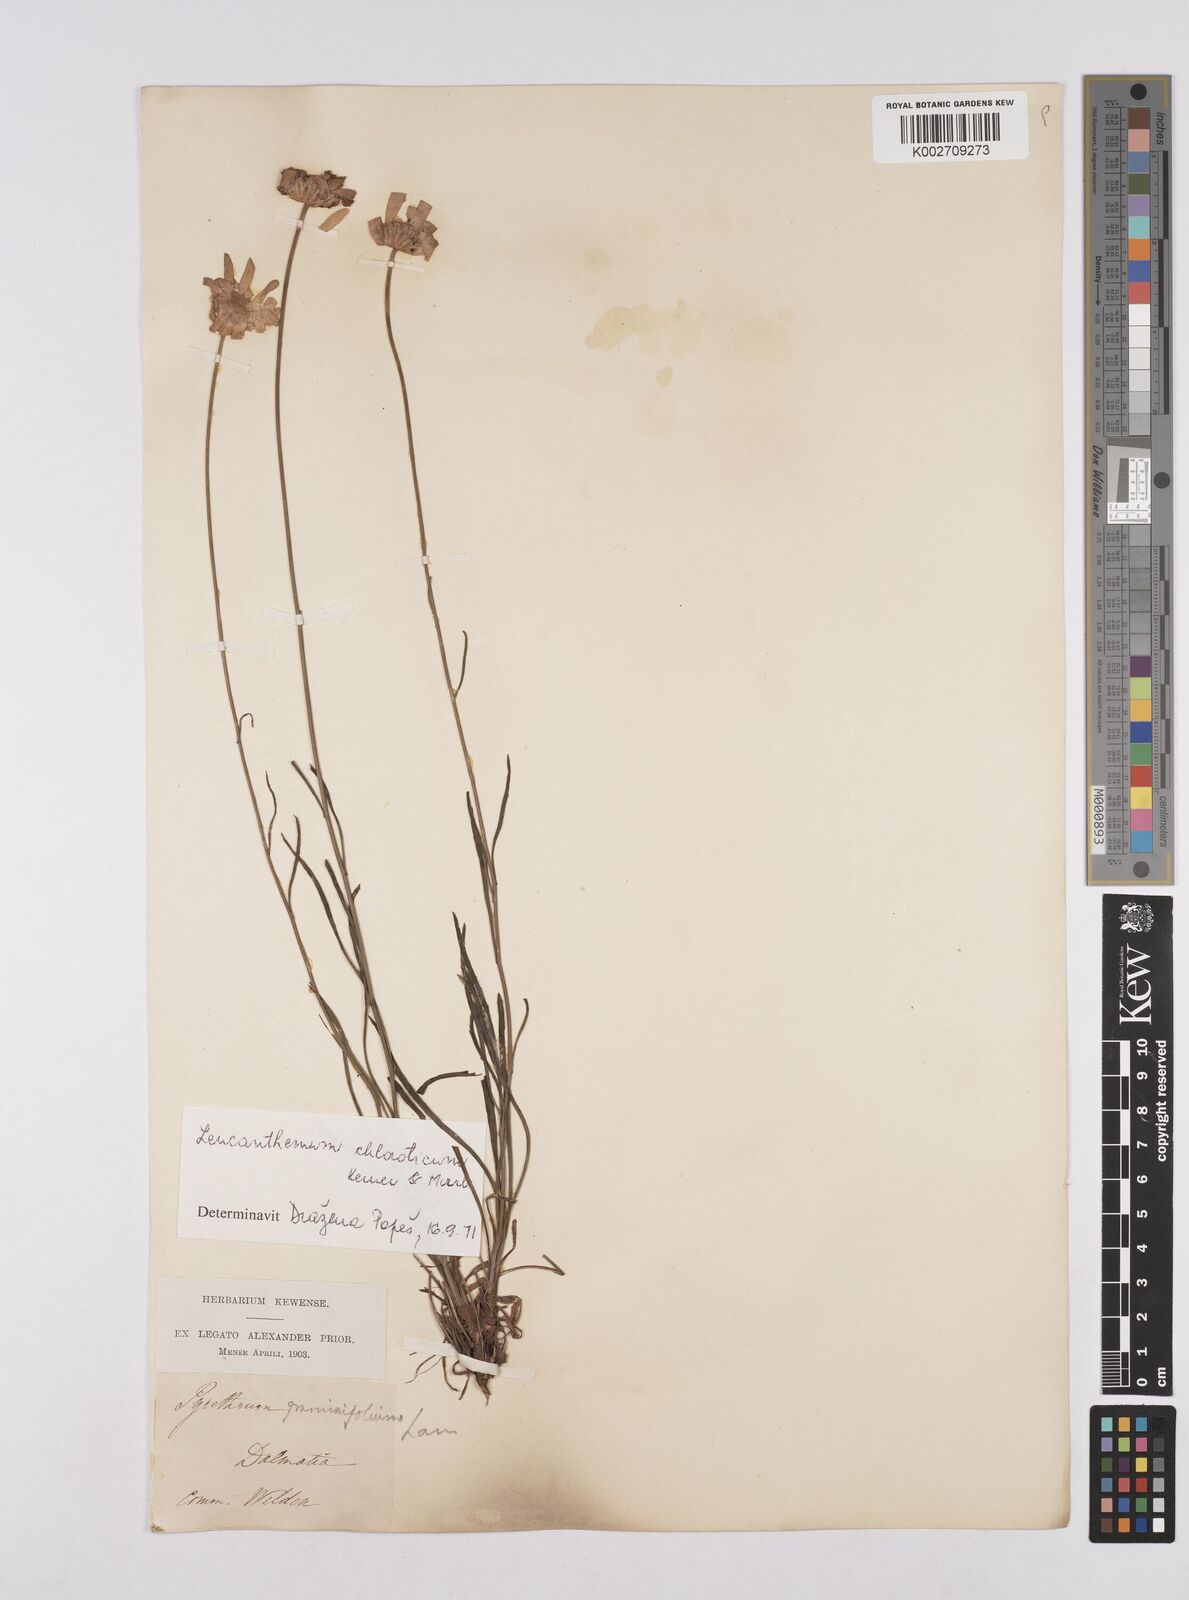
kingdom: Plantae
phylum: Tracheophyta
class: Magnoliopsida
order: Asterales
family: Asteraceae
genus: Leucanthemum
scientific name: Leucanthemum chloroticum
